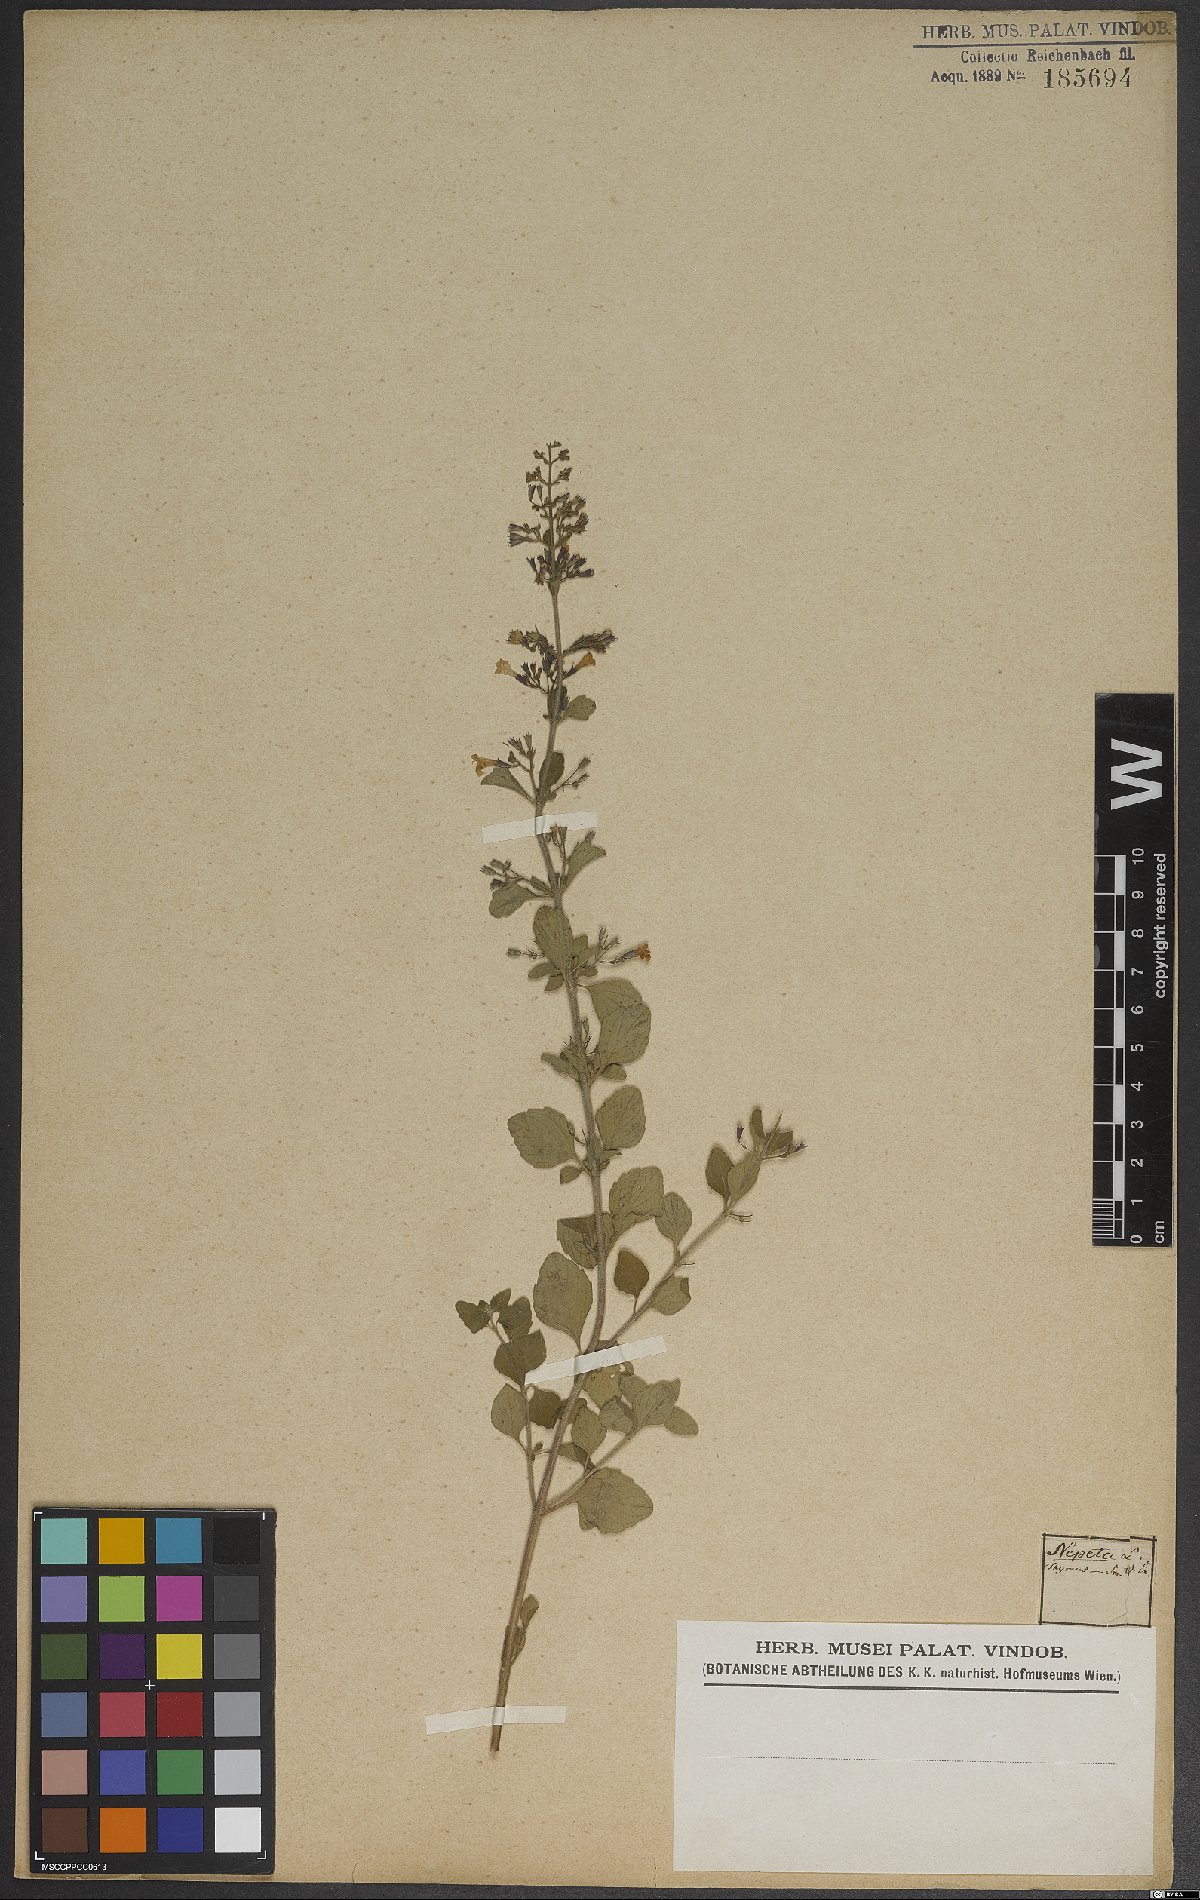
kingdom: Plantae
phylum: Tracheophyta
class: Magnoliopsida
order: Lamiales
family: Lamiaceae
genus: Clinopodium
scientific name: Clinopodium nepeta
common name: Lesser calamint
